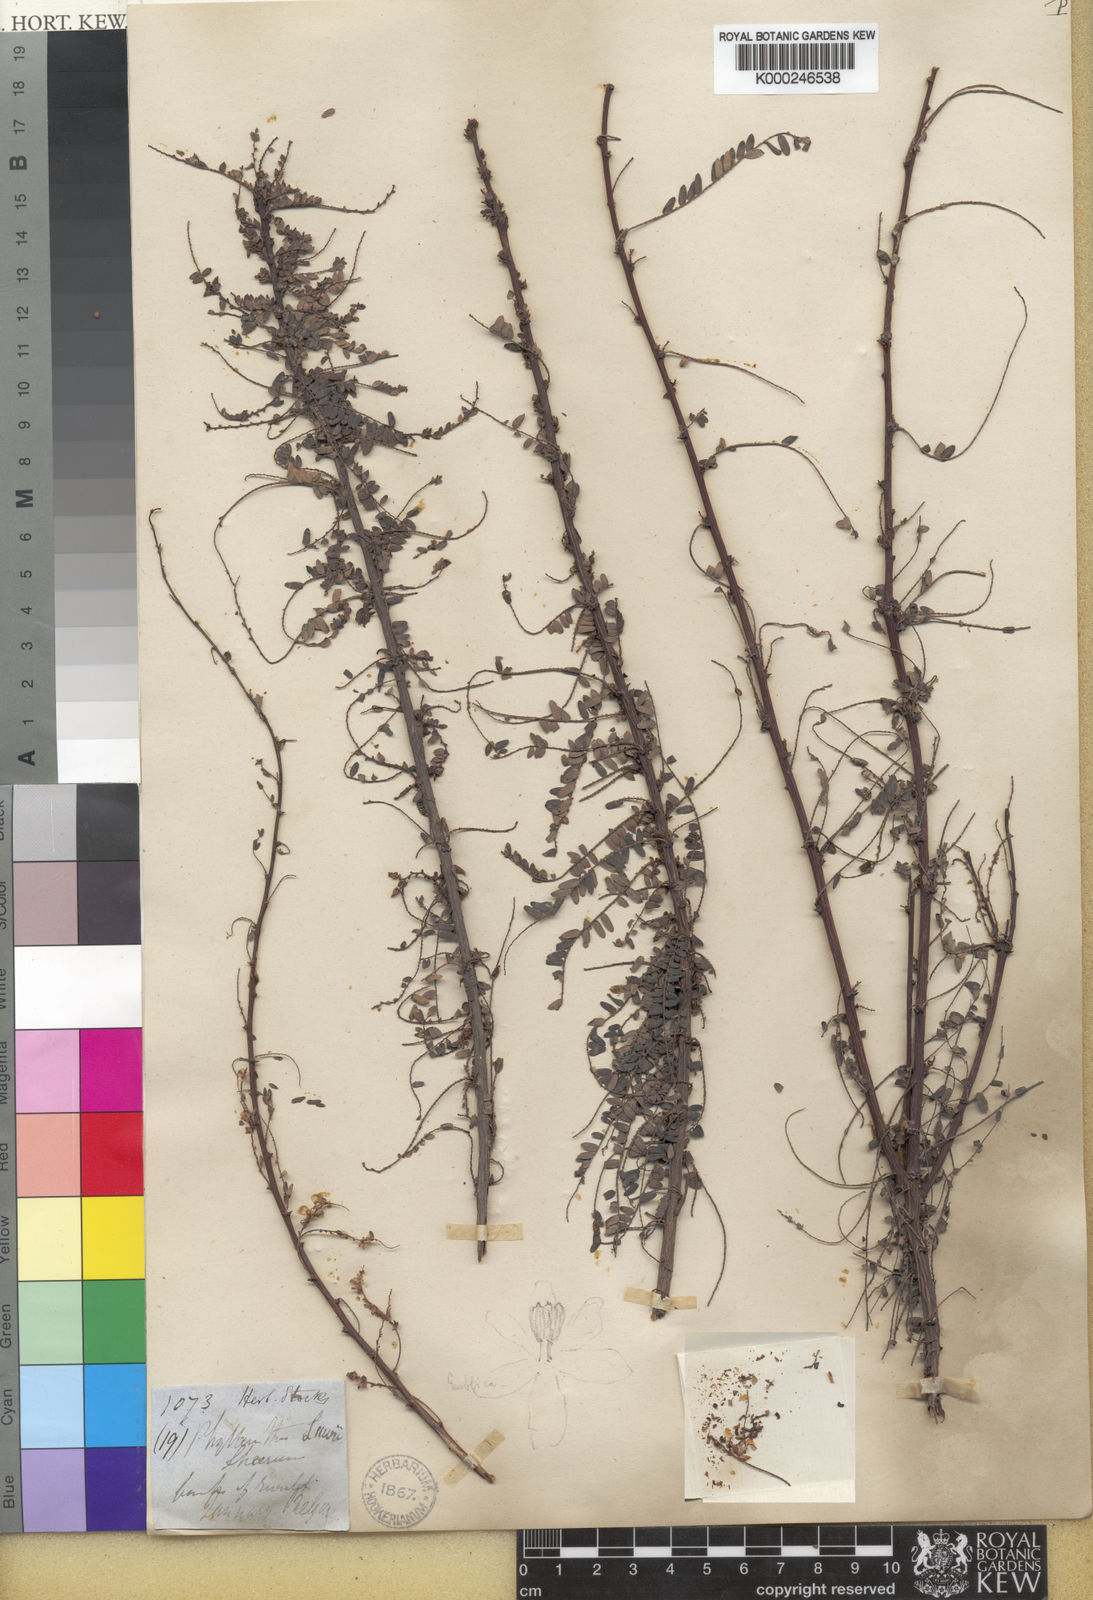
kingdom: Plantae
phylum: Tracheophyta
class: Magnoliopsida
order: Malpighiales
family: Phyllanthaceae
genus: Phyllanthus
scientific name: Phyllanthus lawii
